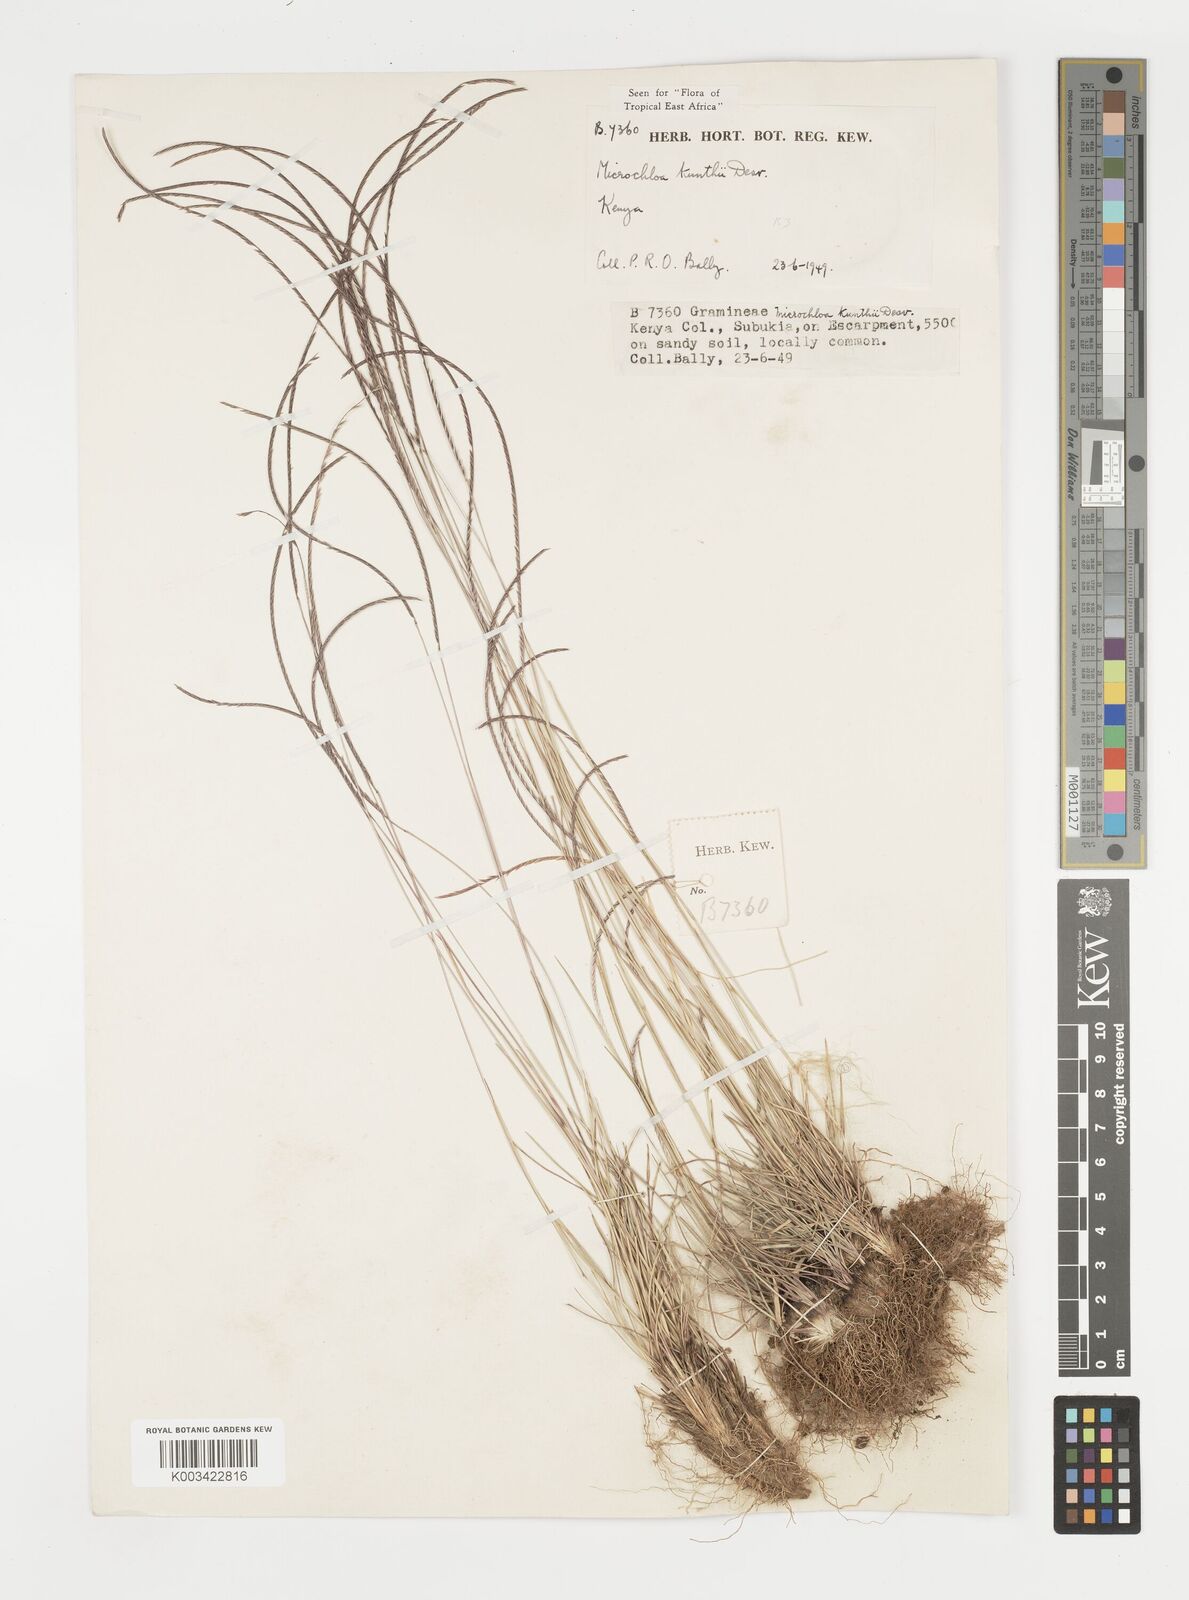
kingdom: Plantae
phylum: Tracheophyta
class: Liliopsida
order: Poales
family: Poaceae
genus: Microchloa
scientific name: Microchloa kunthii
